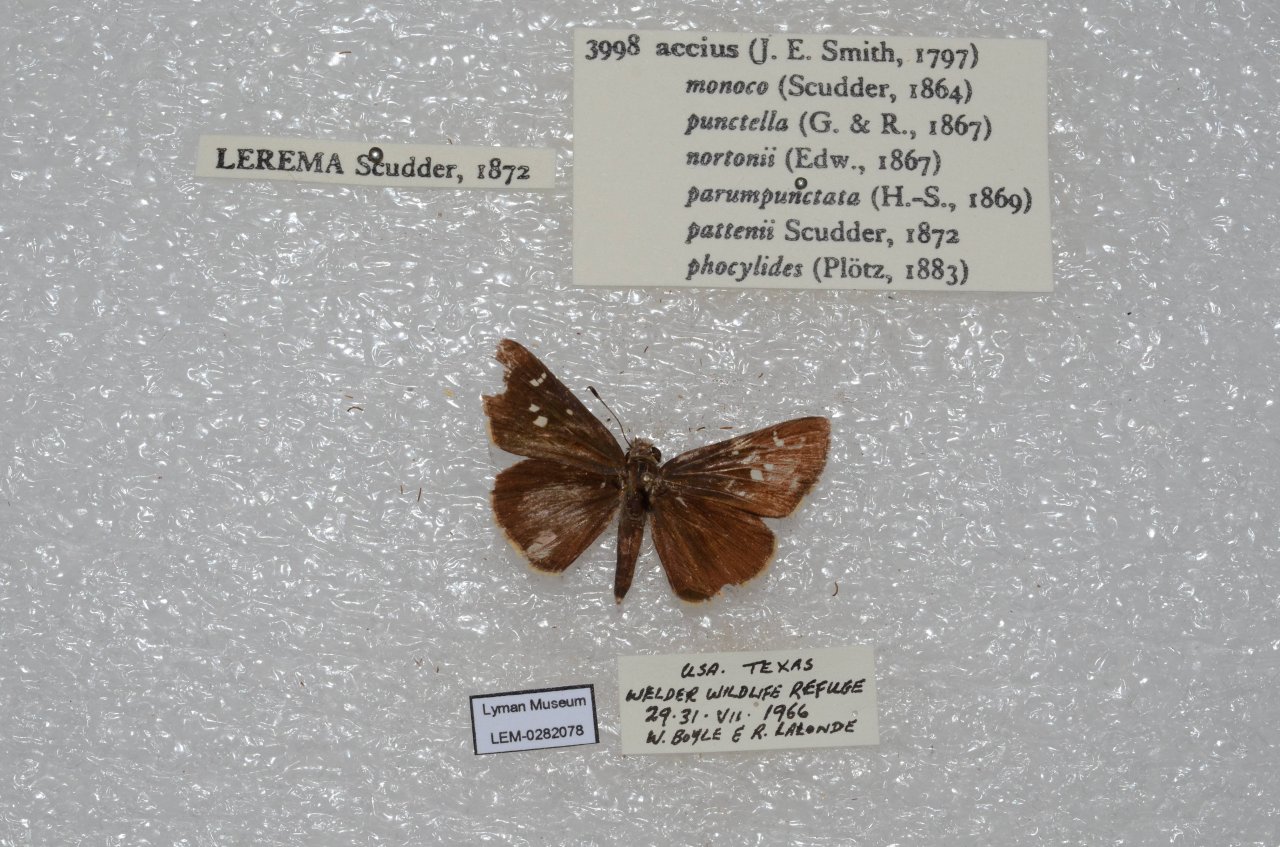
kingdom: Animalia
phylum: Arthropoda
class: Insecta
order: Lepidoptera
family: Hesperiidae
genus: Lerema
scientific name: Lerema accius
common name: Clouded Skipper
